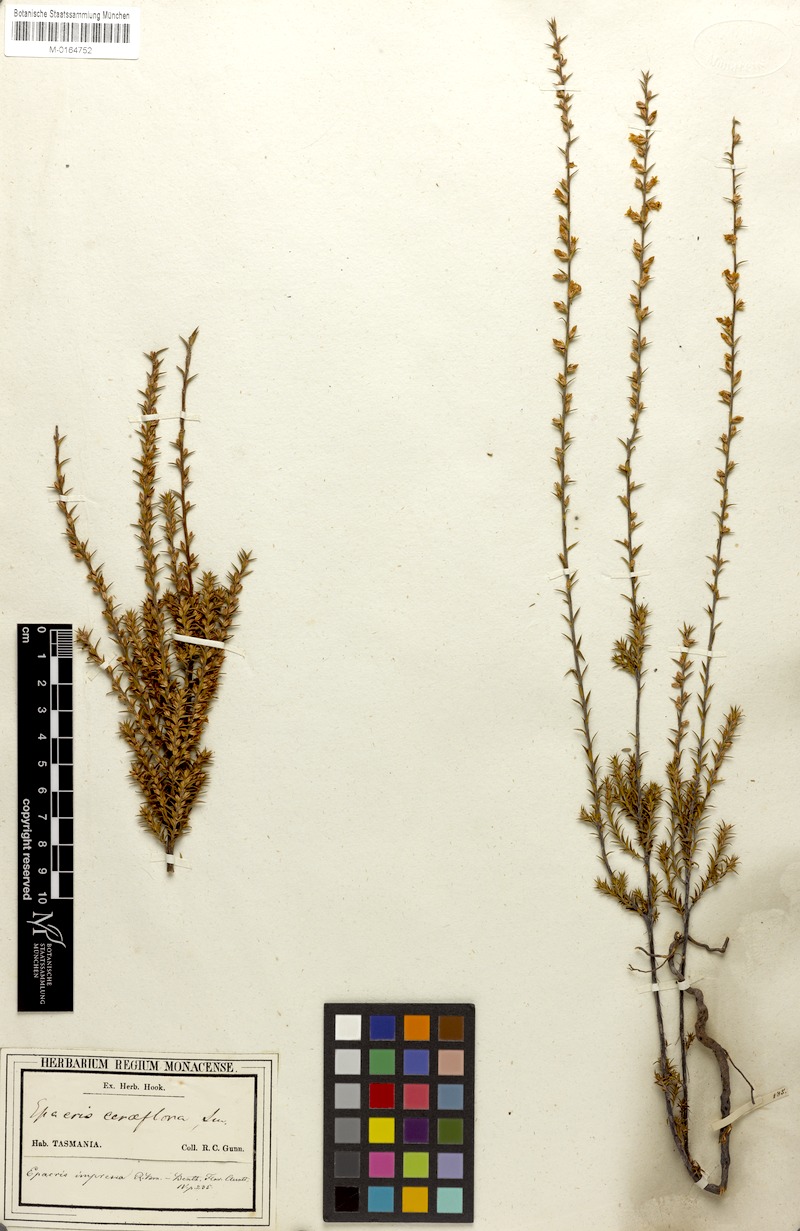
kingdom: Plantae
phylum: Tracheophyta
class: Magnoliopsida
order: Ericales
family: Ericaceae
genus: Epacris
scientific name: Epacris impressa
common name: Common-heath
